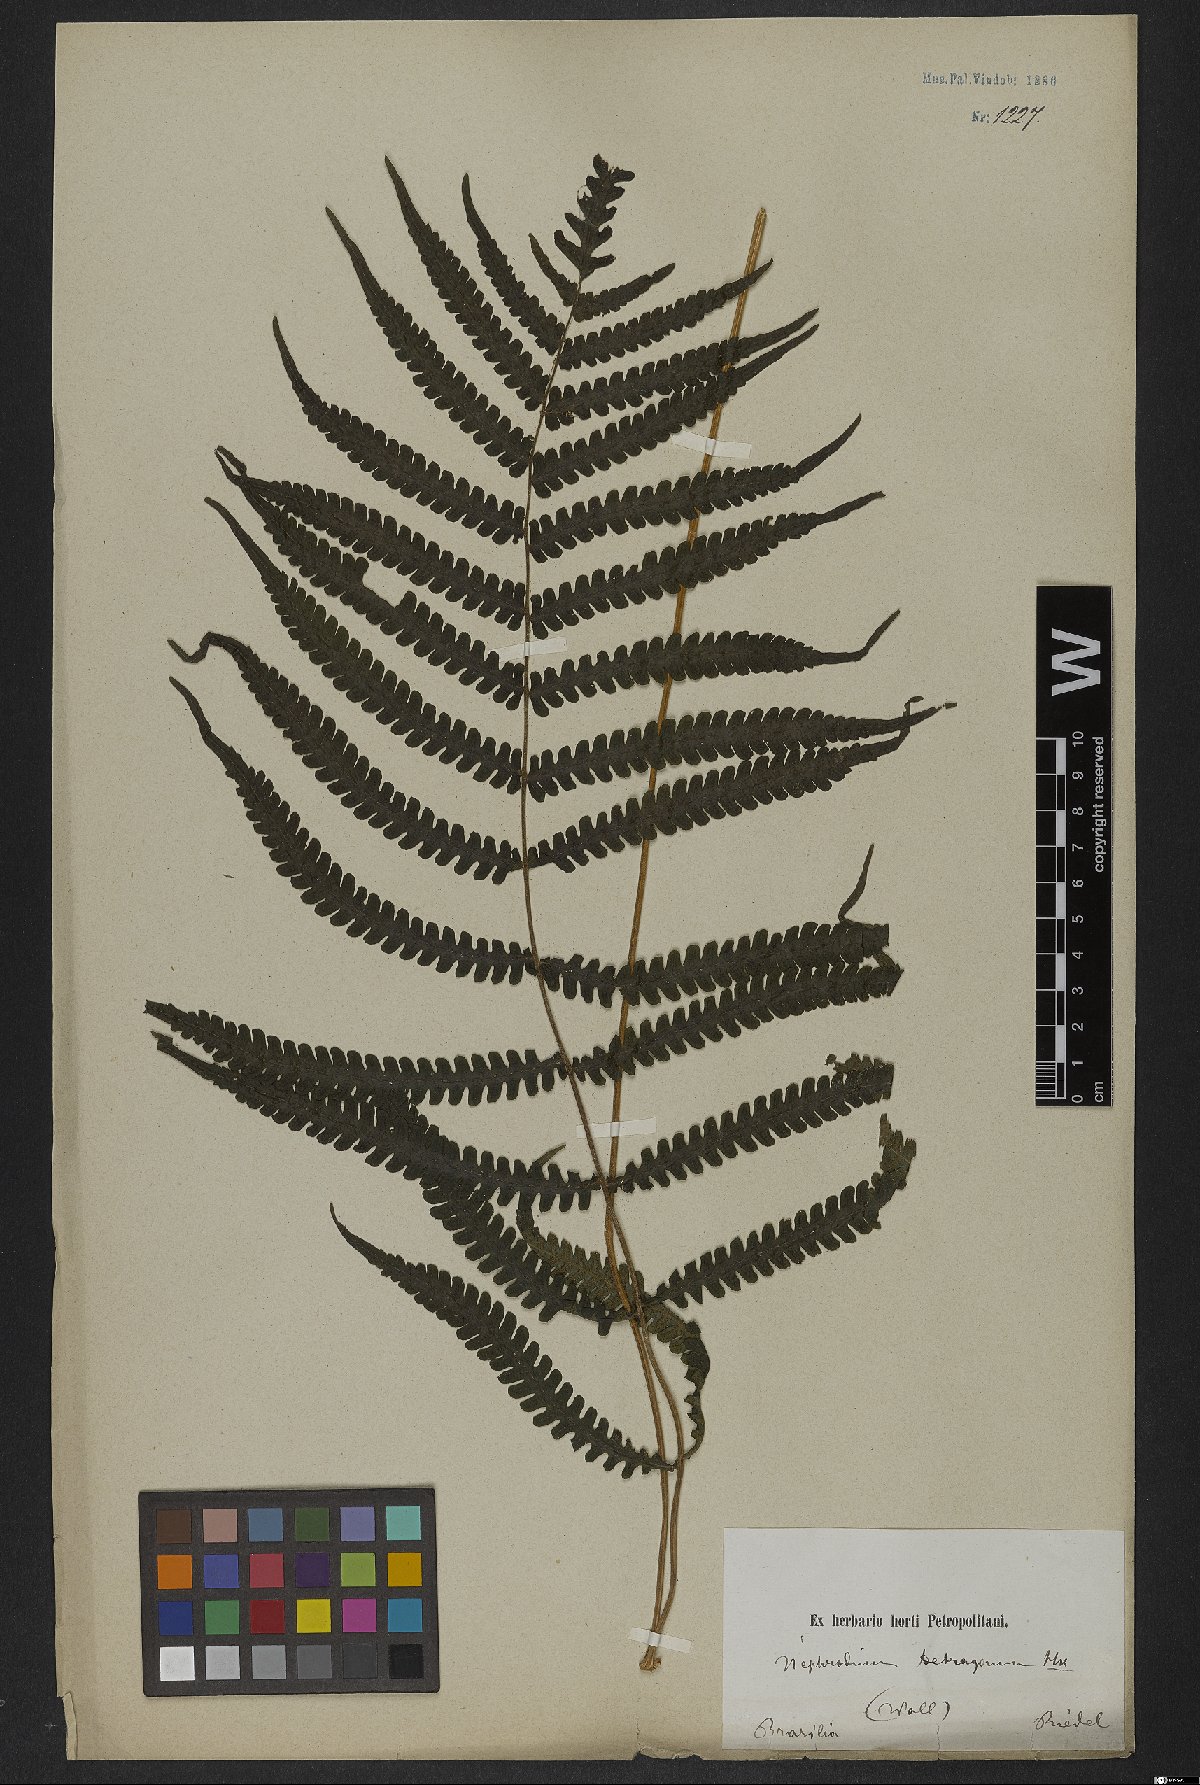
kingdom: Plantae
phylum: Tracheophyta
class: Polypodiopsida
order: Polypodiales
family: Thelypteridaceae
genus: Goniopteris
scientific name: Goniopteris lugubris
